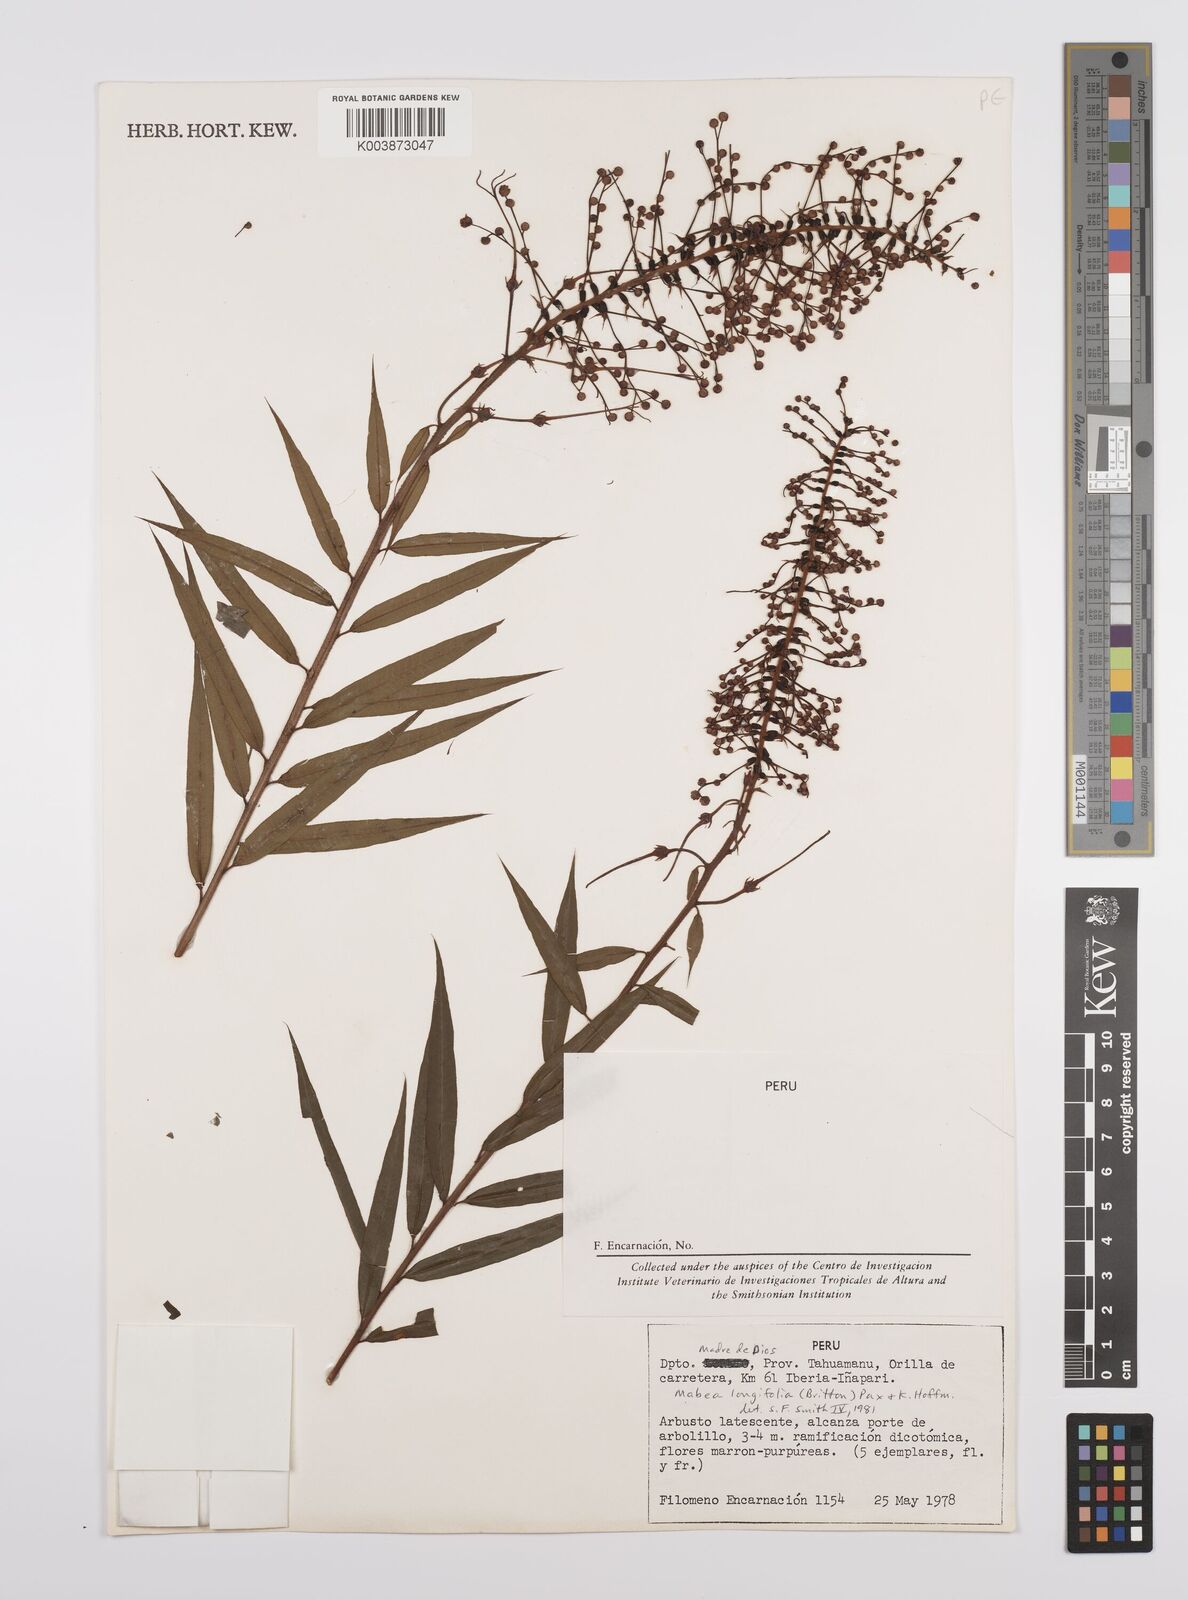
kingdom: Plantae
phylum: Tracheophyta
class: Magnoliopsida
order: Malpighiales
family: Euphorbiaceae
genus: Mabea
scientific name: Mabea angustifolia
